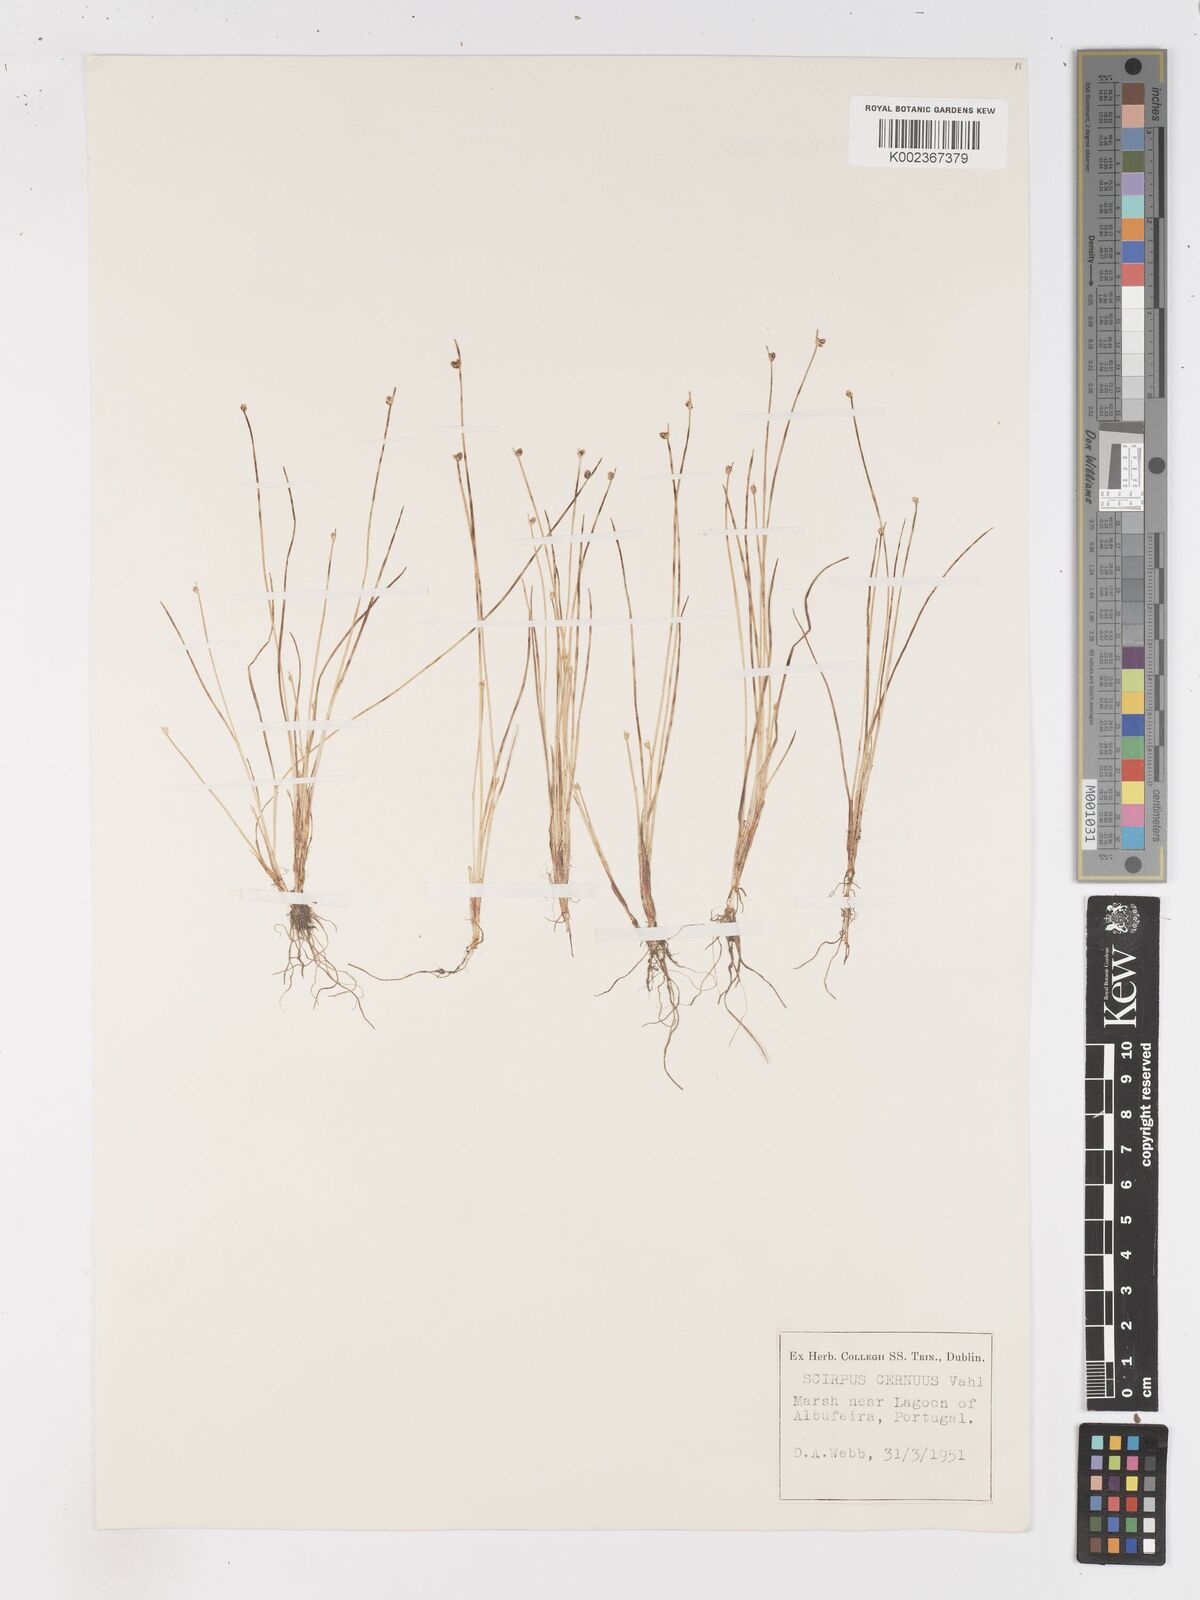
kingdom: Plantae
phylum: Tracheophyta
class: Liliopsida
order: Poales
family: Cyperaceae
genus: Isolepis
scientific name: Isolepis cernua
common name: Slender club-rush
